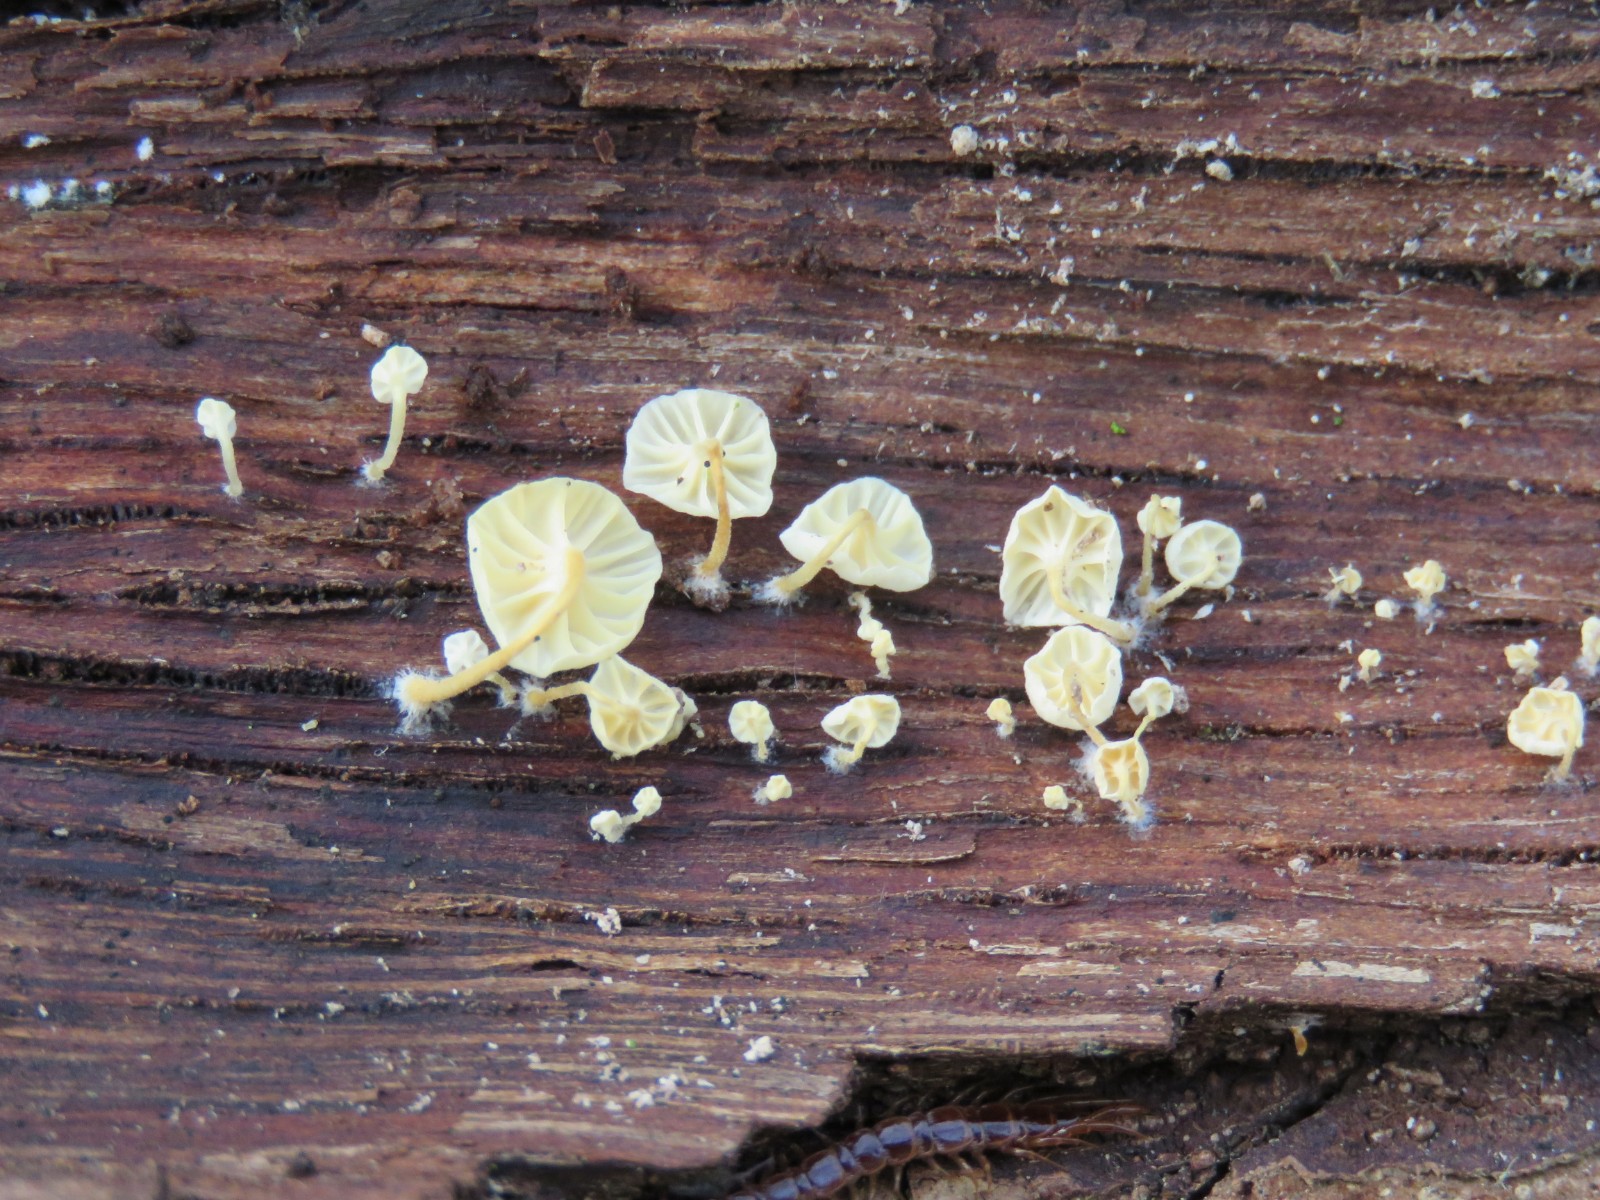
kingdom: Fungi
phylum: Basidiomycota
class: Agaricomycetes
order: Agaricales
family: Porotheleaceae
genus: Phloeomana
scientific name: Phloeomana speirea
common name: kvist-huesvamp
